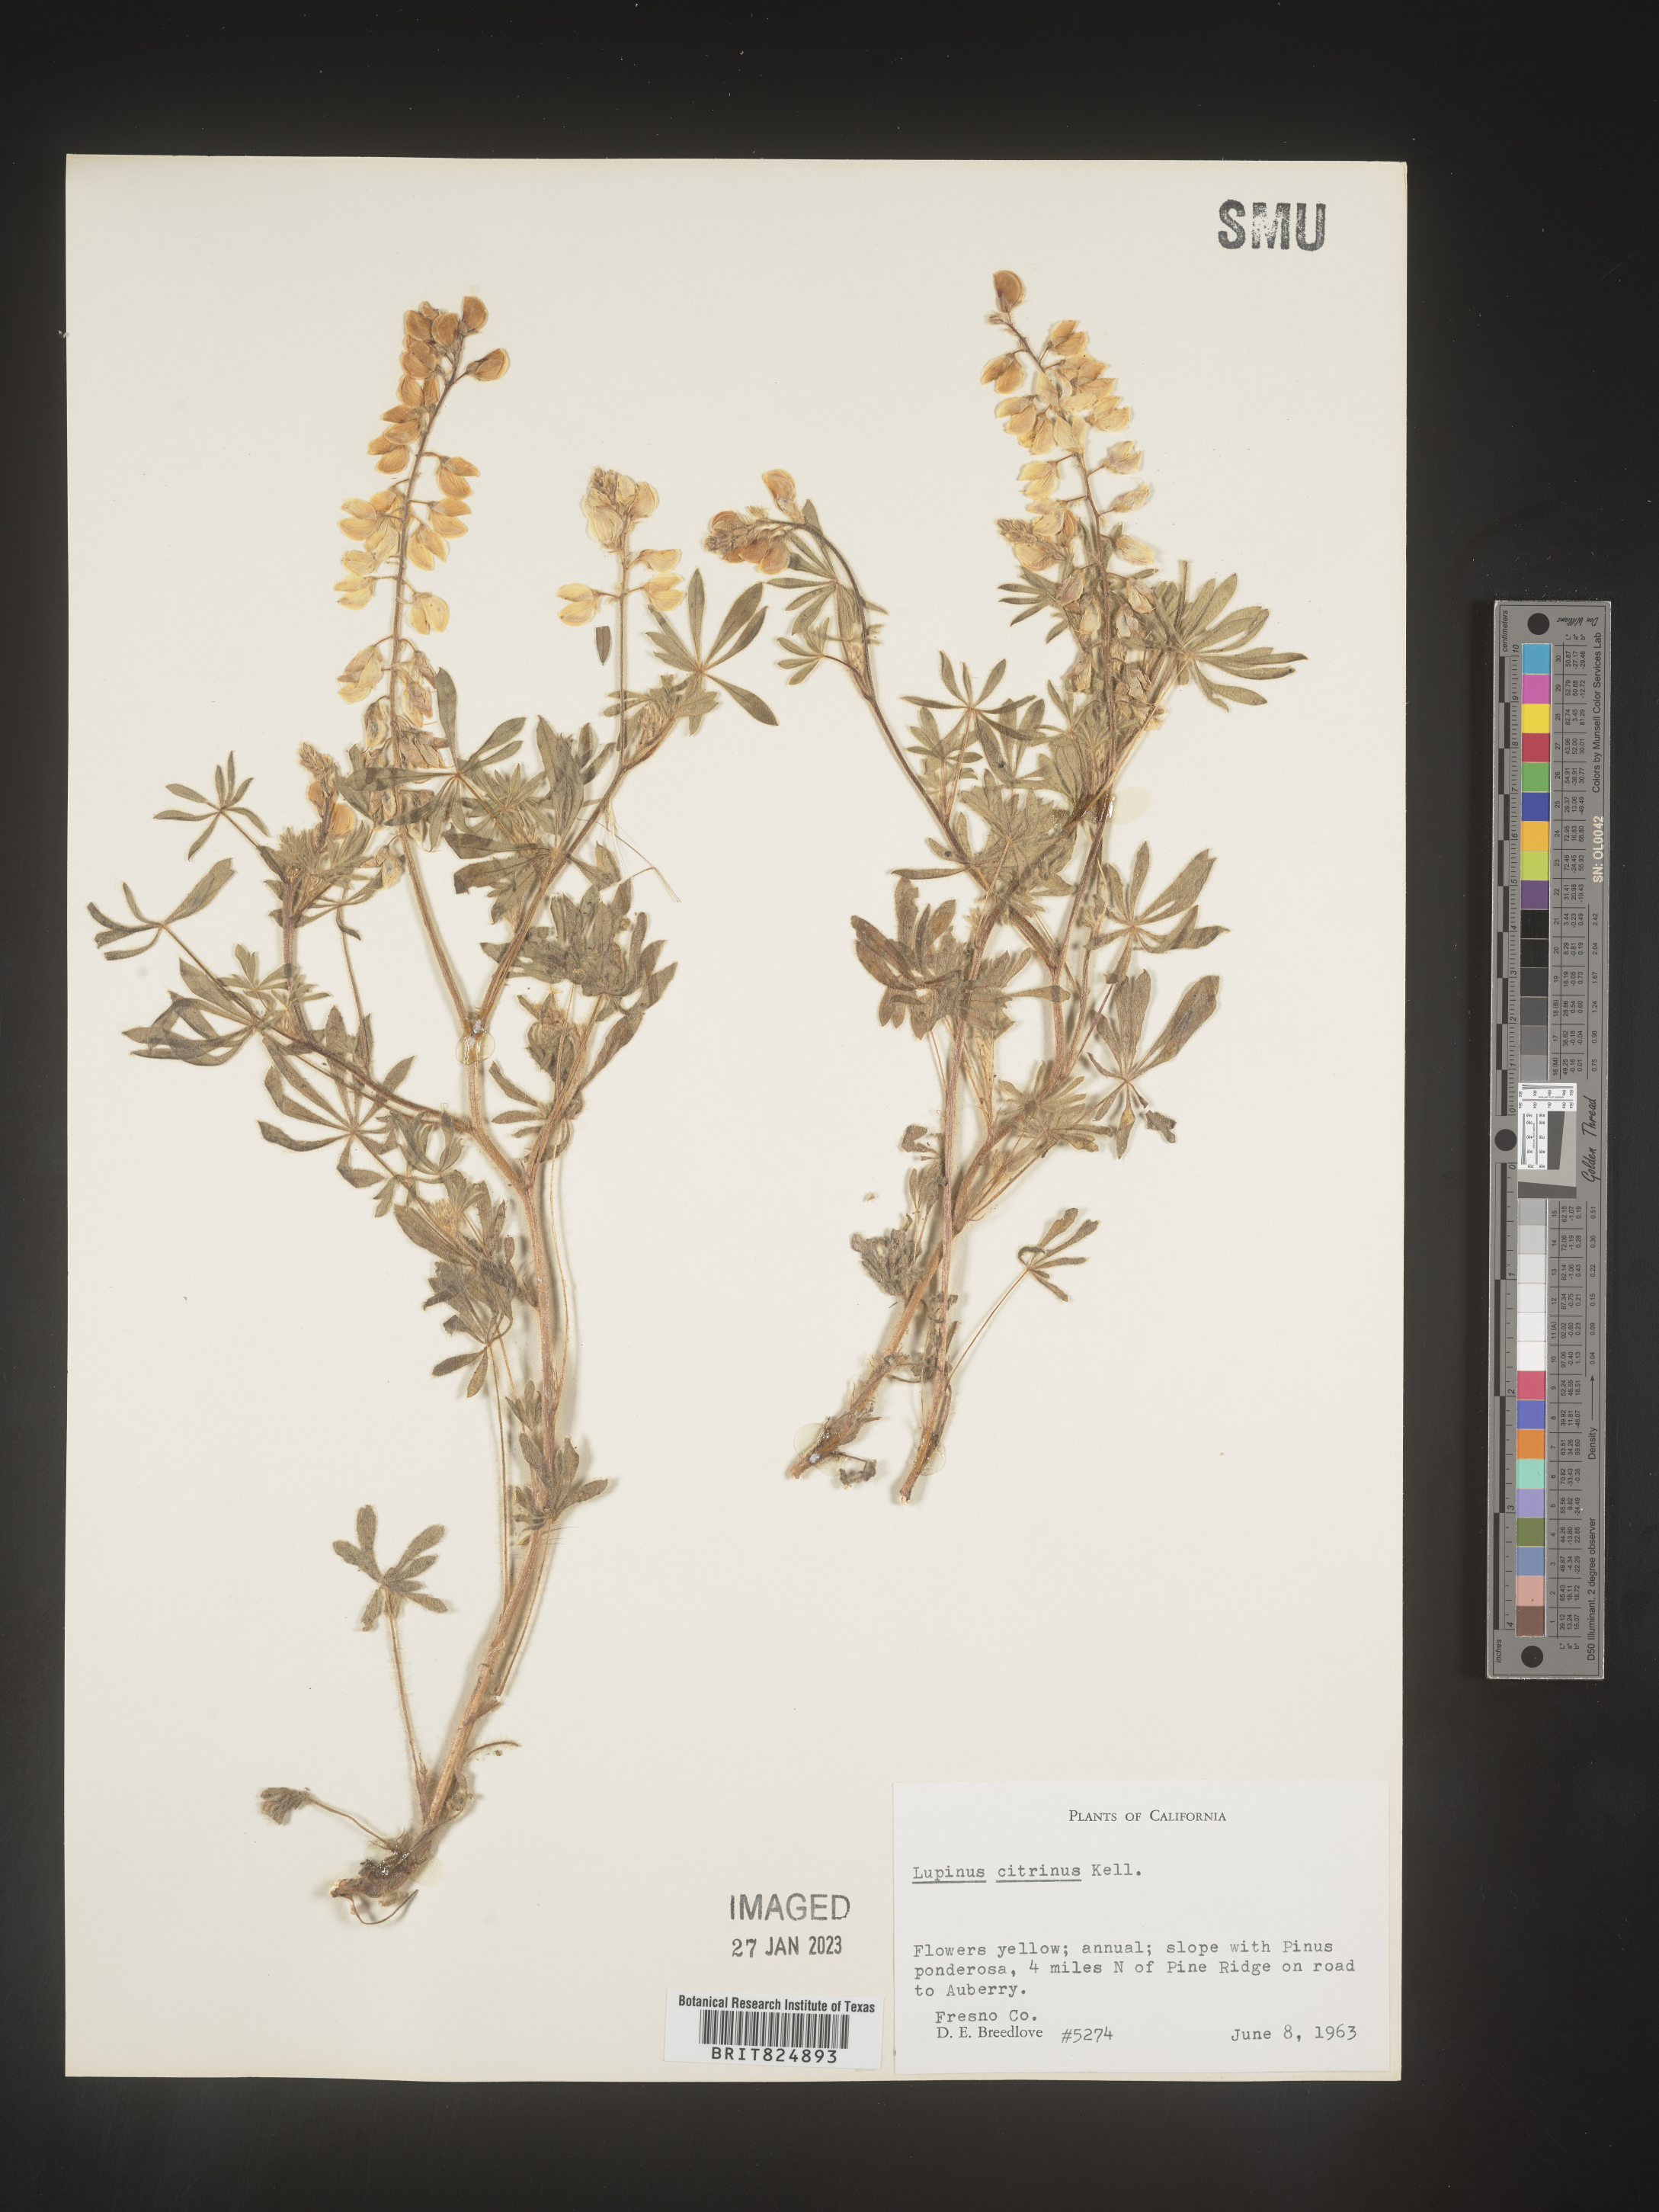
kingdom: Plantae
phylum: Tracheophyta
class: Magnoliopsida
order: Fabales
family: Fabaceae
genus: Lupinus
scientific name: Lupinus
